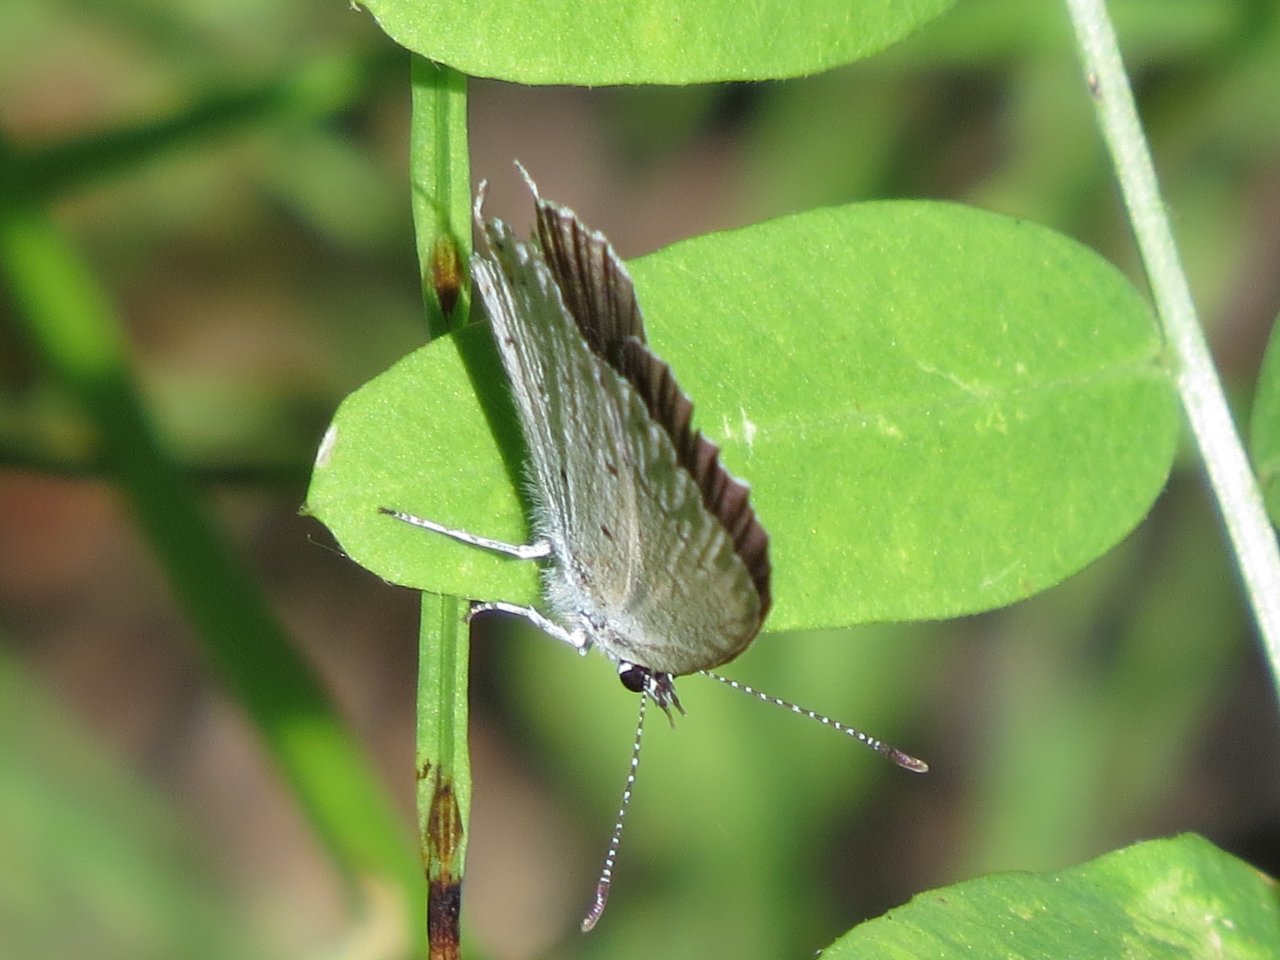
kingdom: Animalia
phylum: Arthropoda
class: Insecta
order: Lepidoptera
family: Lycaenidae
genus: Elkalyce
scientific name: Elkalyce amyntula
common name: Western Tailed-Blue
